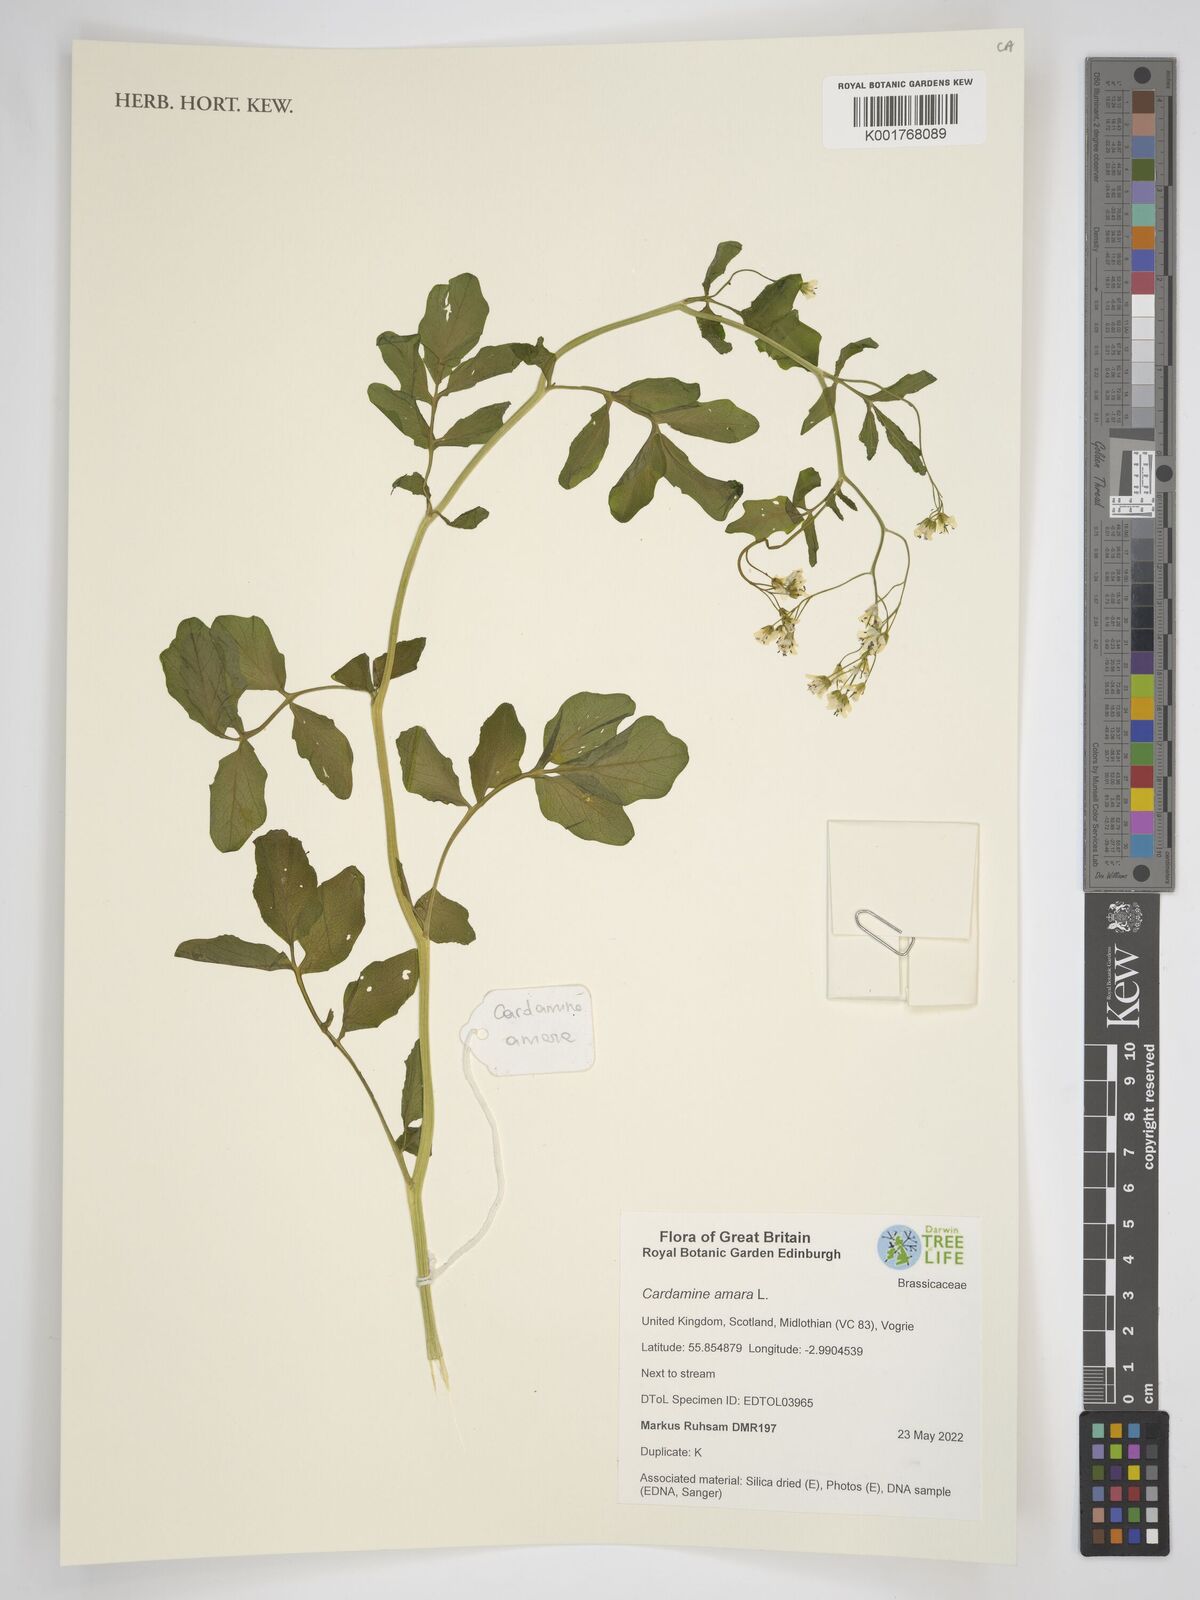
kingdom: Plantae
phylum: Tracheophyta
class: Magnoliopsida
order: Brassicales
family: Brassicaceae
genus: Cardamine
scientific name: Cardamine amara
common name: Large bitter-cress
